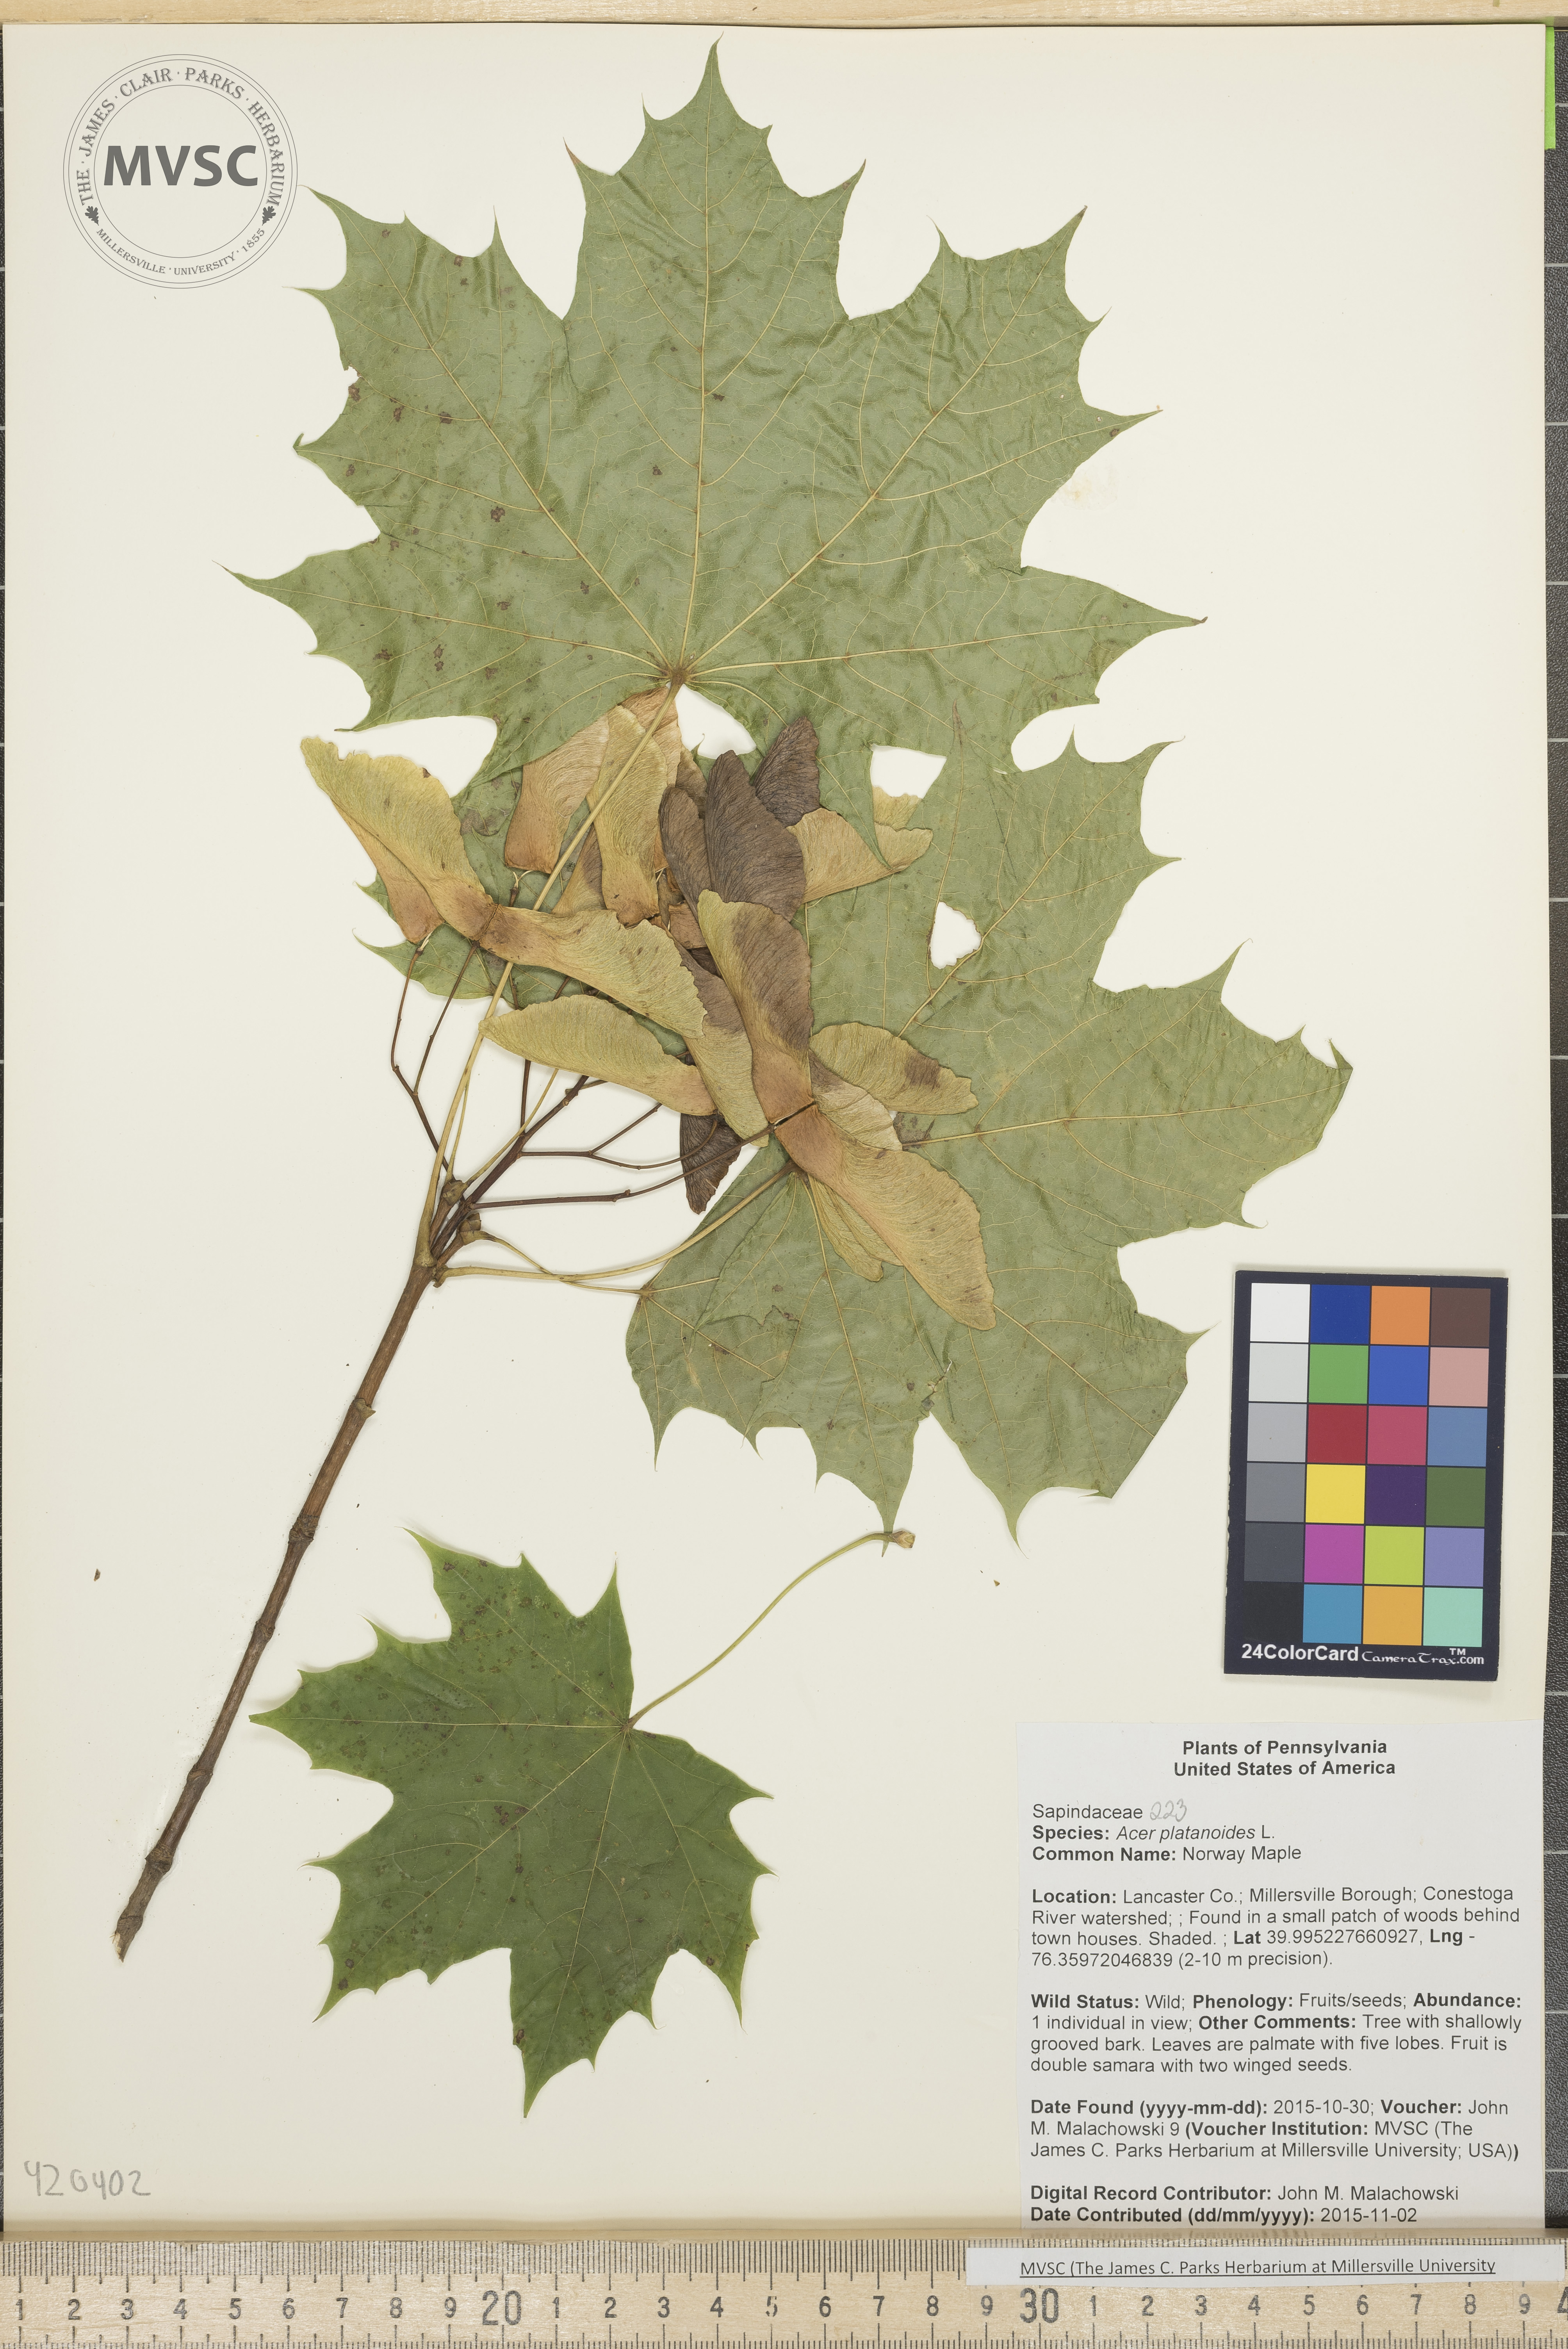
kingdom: Plantae
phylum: Tracheophyta
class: Magnoliopsida
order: Sapindales
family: Sapindaceae
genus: Acer
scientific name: Acer platanoides
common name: Norway Maple
